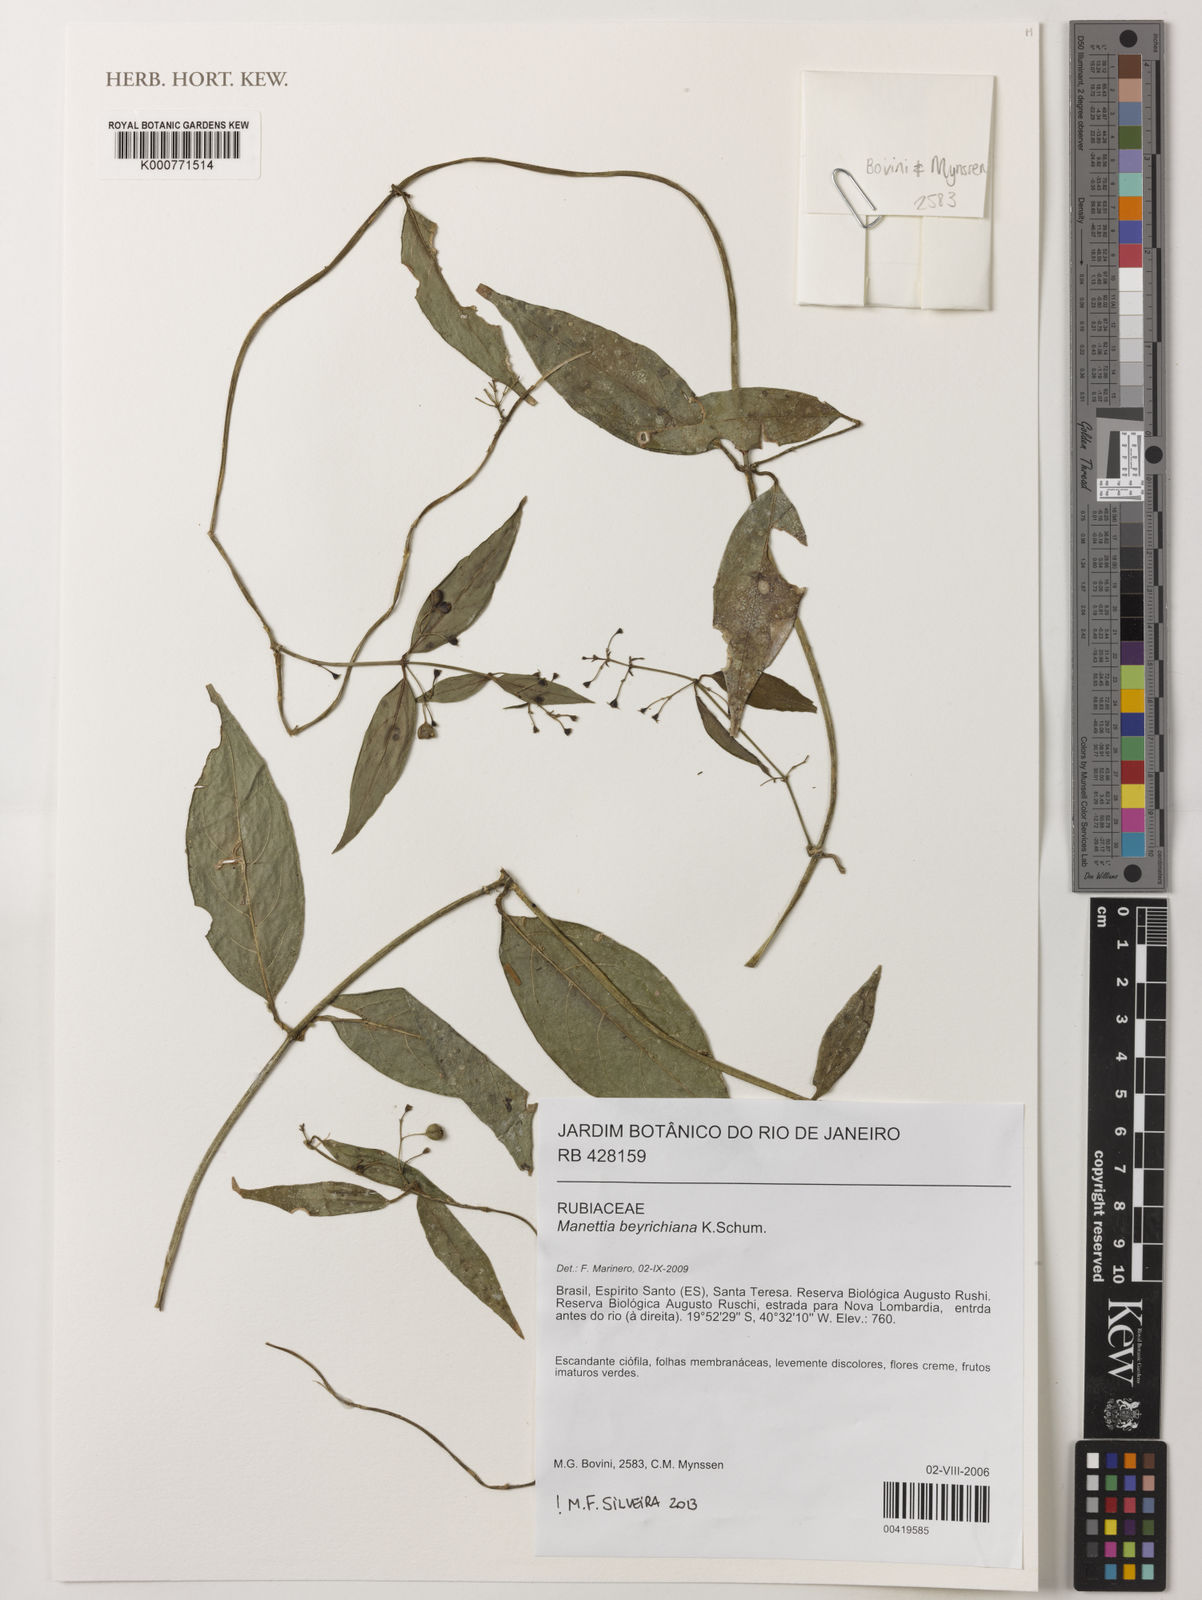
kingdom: Plantae
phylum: Tracheophyta
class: Magnoliopsida
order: Gentianales
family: Rubiaceae
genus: Manettia
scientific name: Manettia beyrichiana
